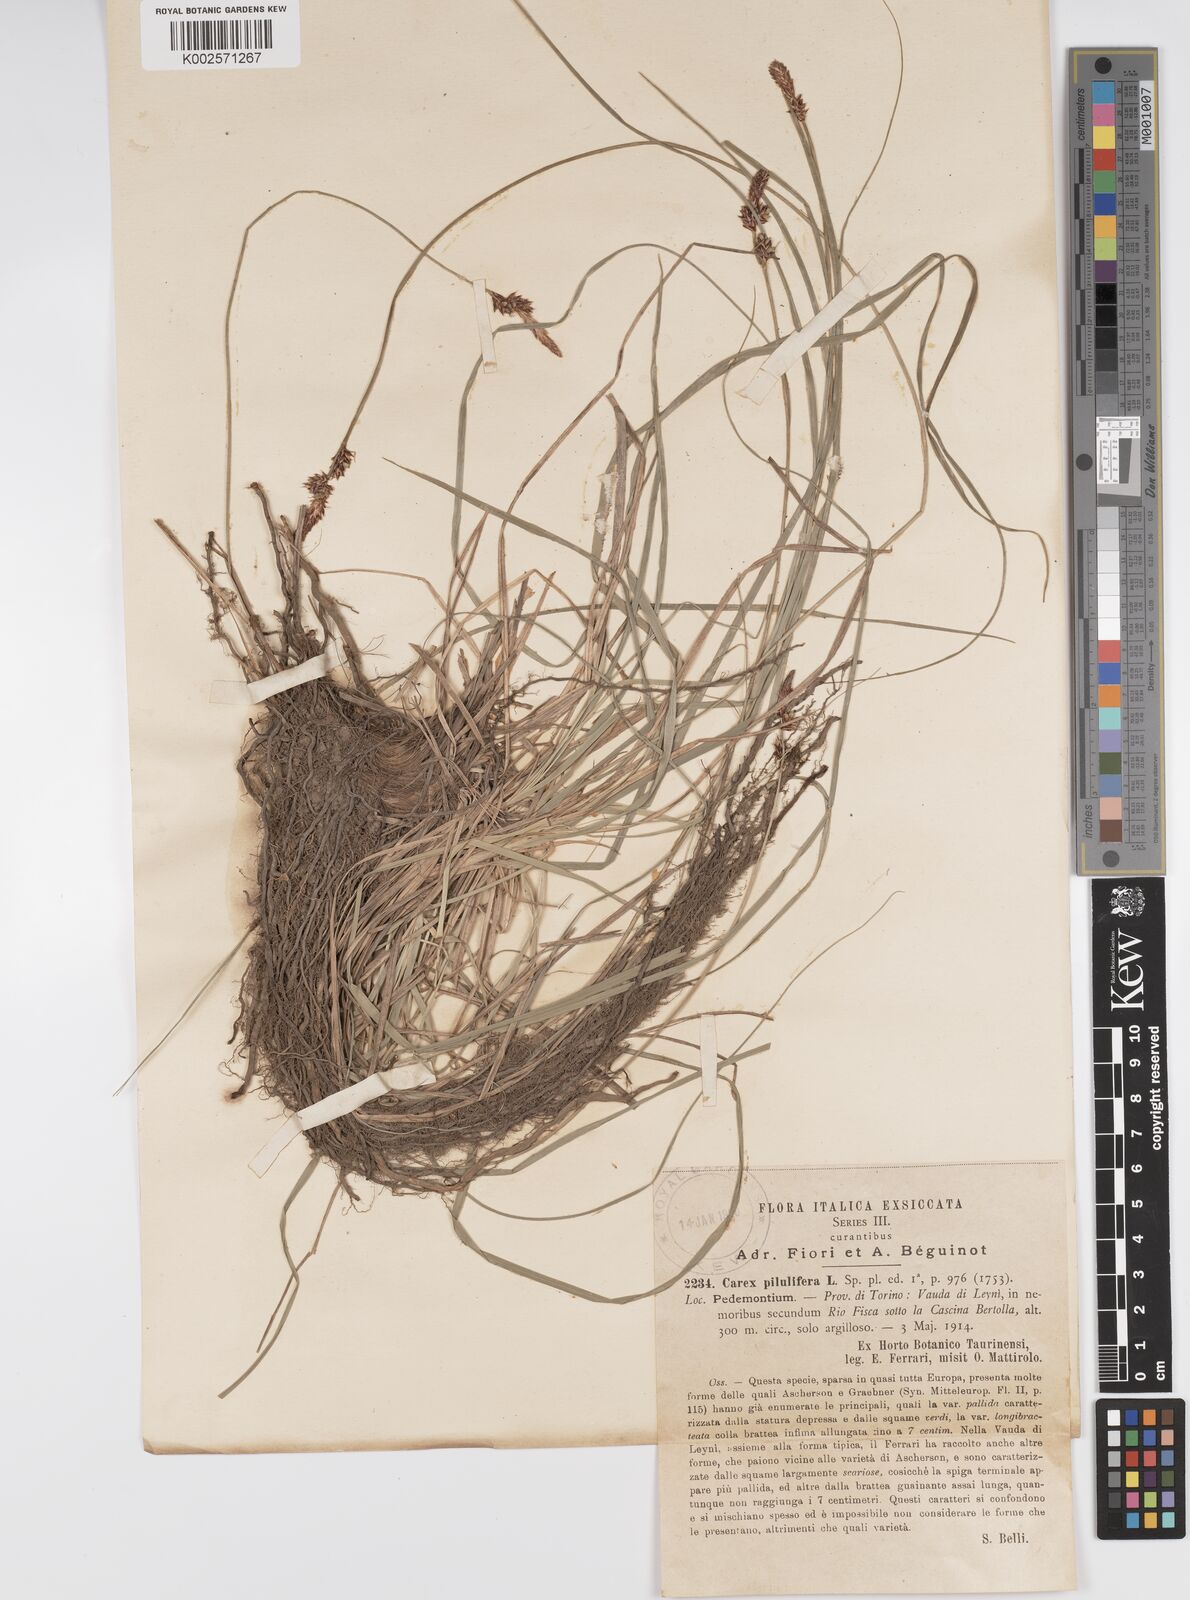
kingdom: Plantae
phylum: Tracheophyta
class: Liliopsida
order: Poales
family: Cyperaceae
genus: Carex
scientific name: Carex fritschii
